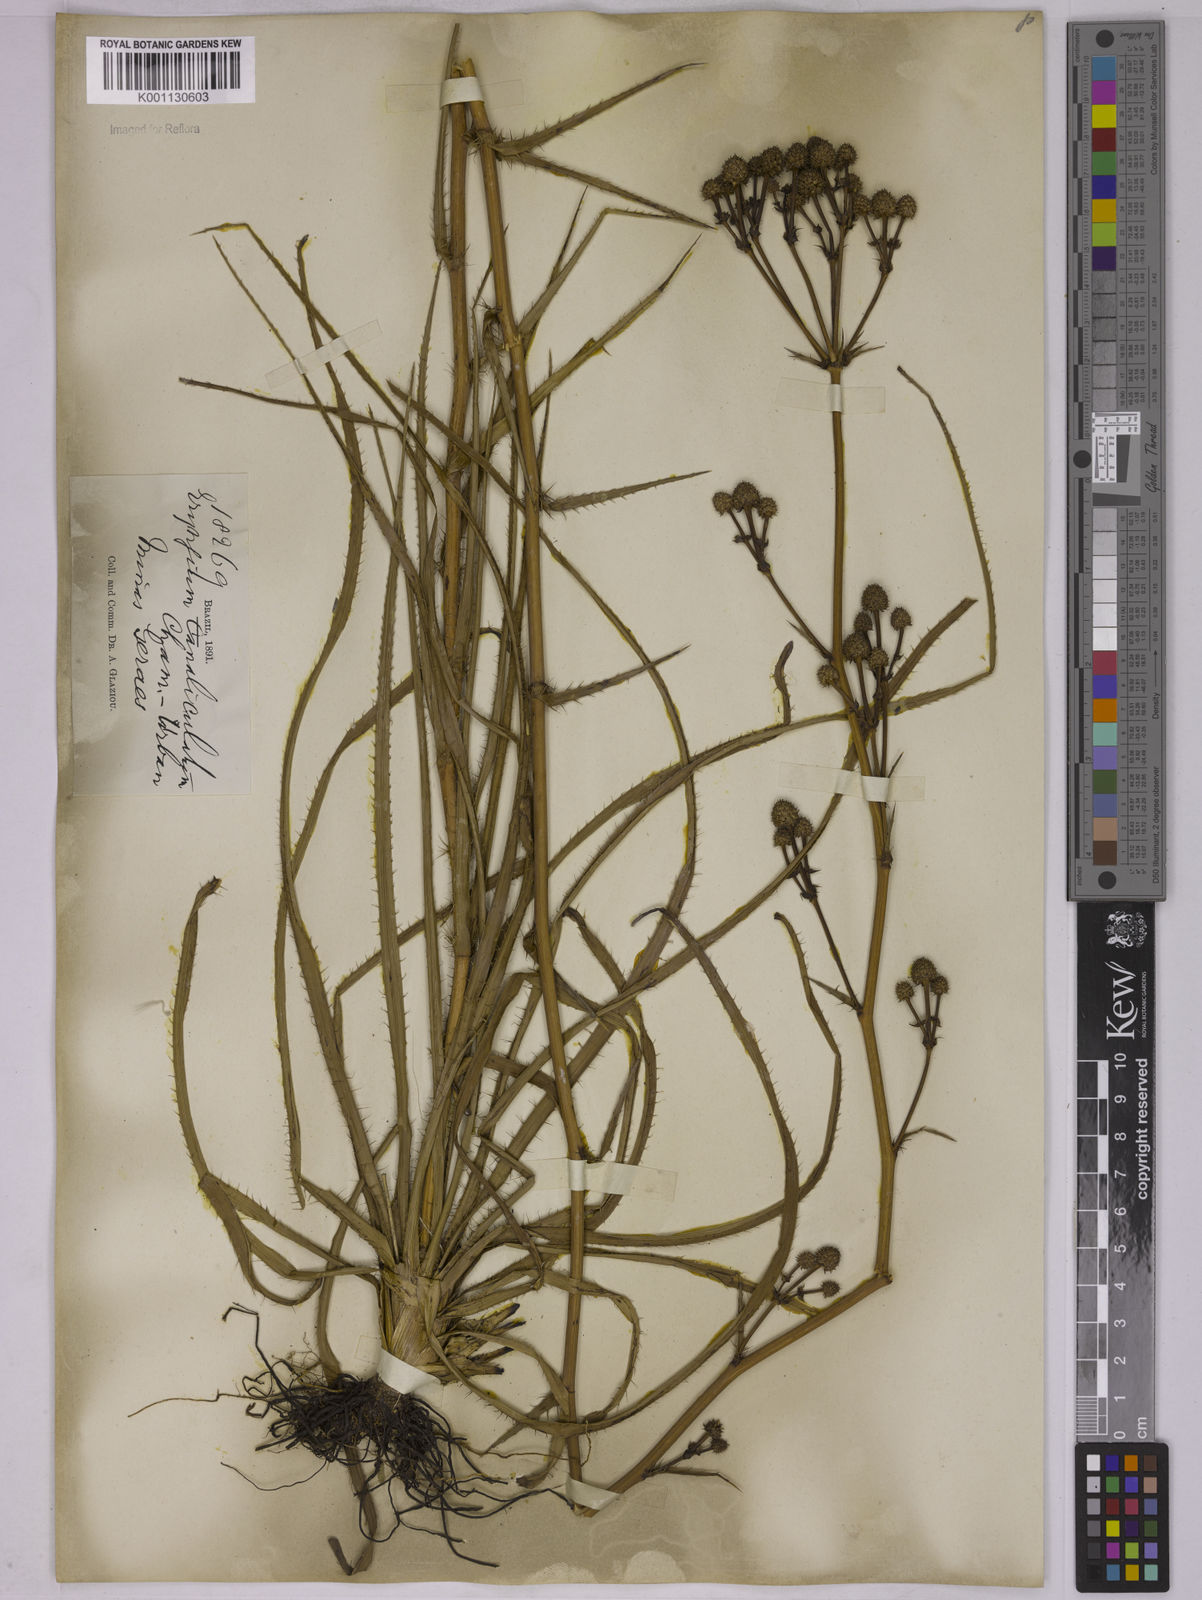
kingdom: Plantae
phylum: Tracheophyta
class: Magnoliopsida
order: Apiales
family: Apiaceae
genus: Eryngium
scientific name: Eryngium canaliculatum
